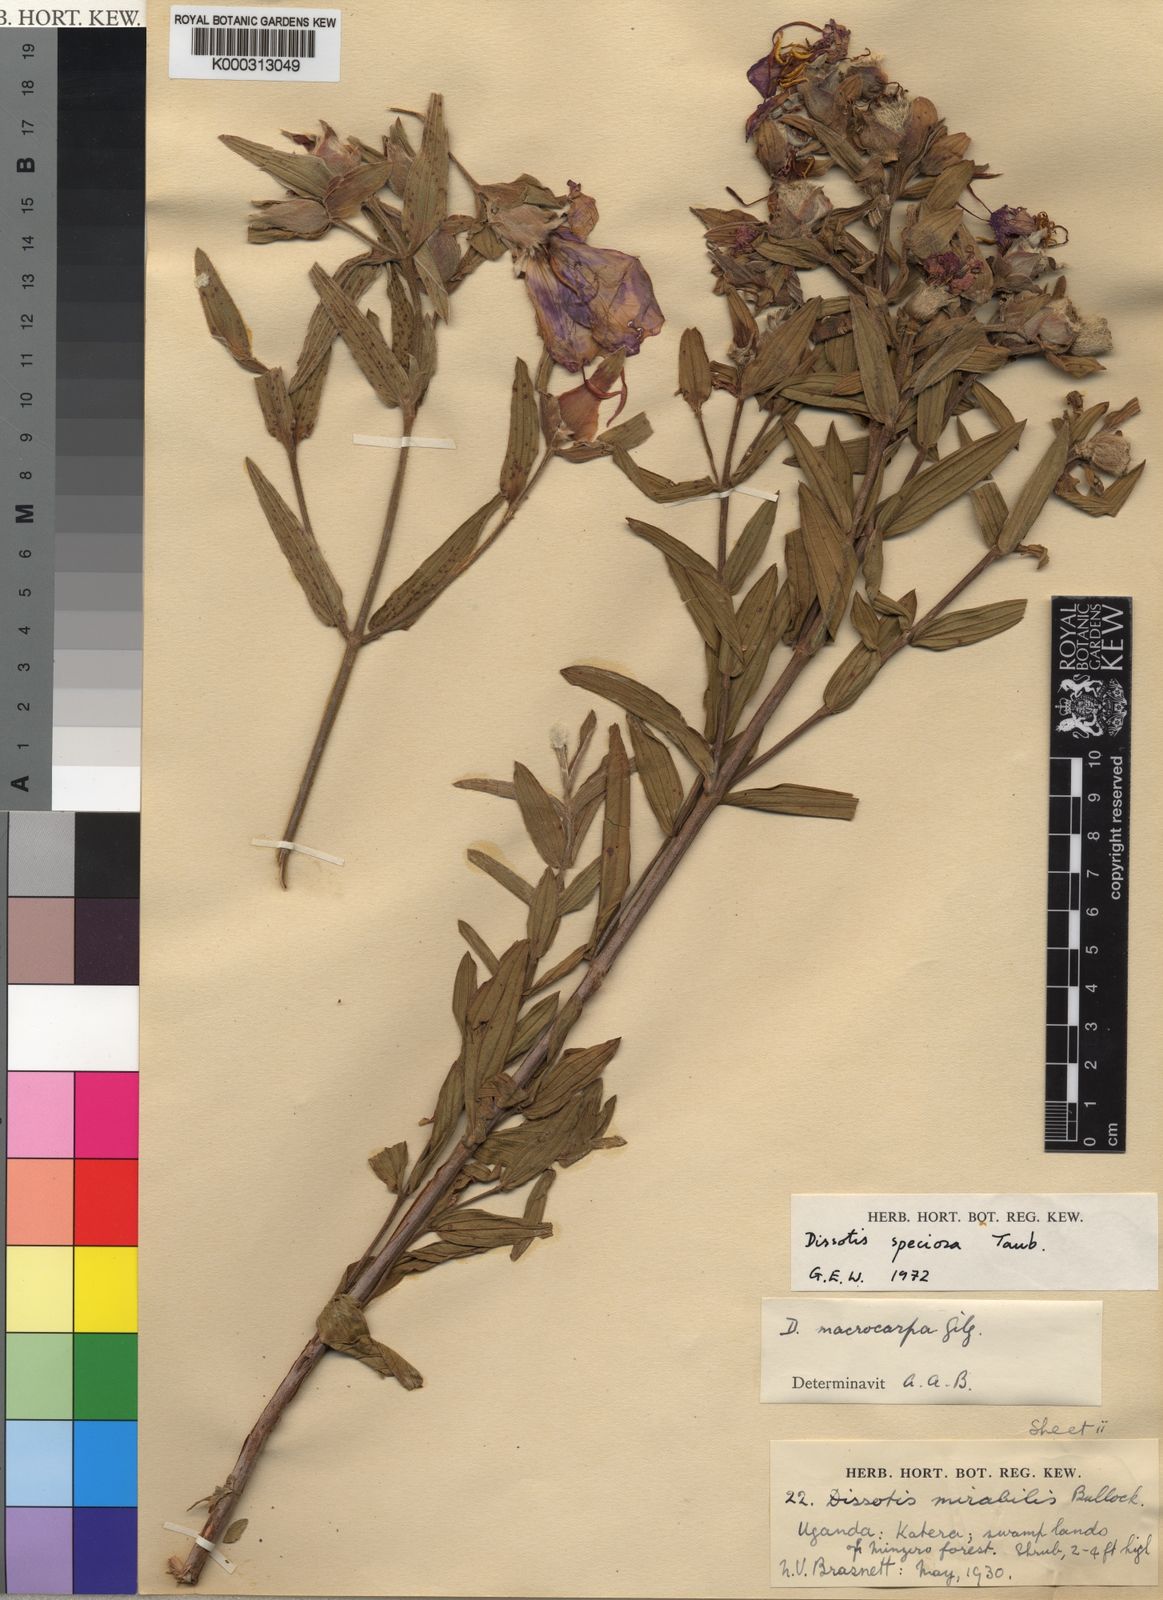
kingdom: Plantae
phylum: Tracheophyta
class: Magnoliopsida
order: Myrtales
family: Melastomataceae
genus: Feliciotis
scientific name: Feliciotis speciosa
